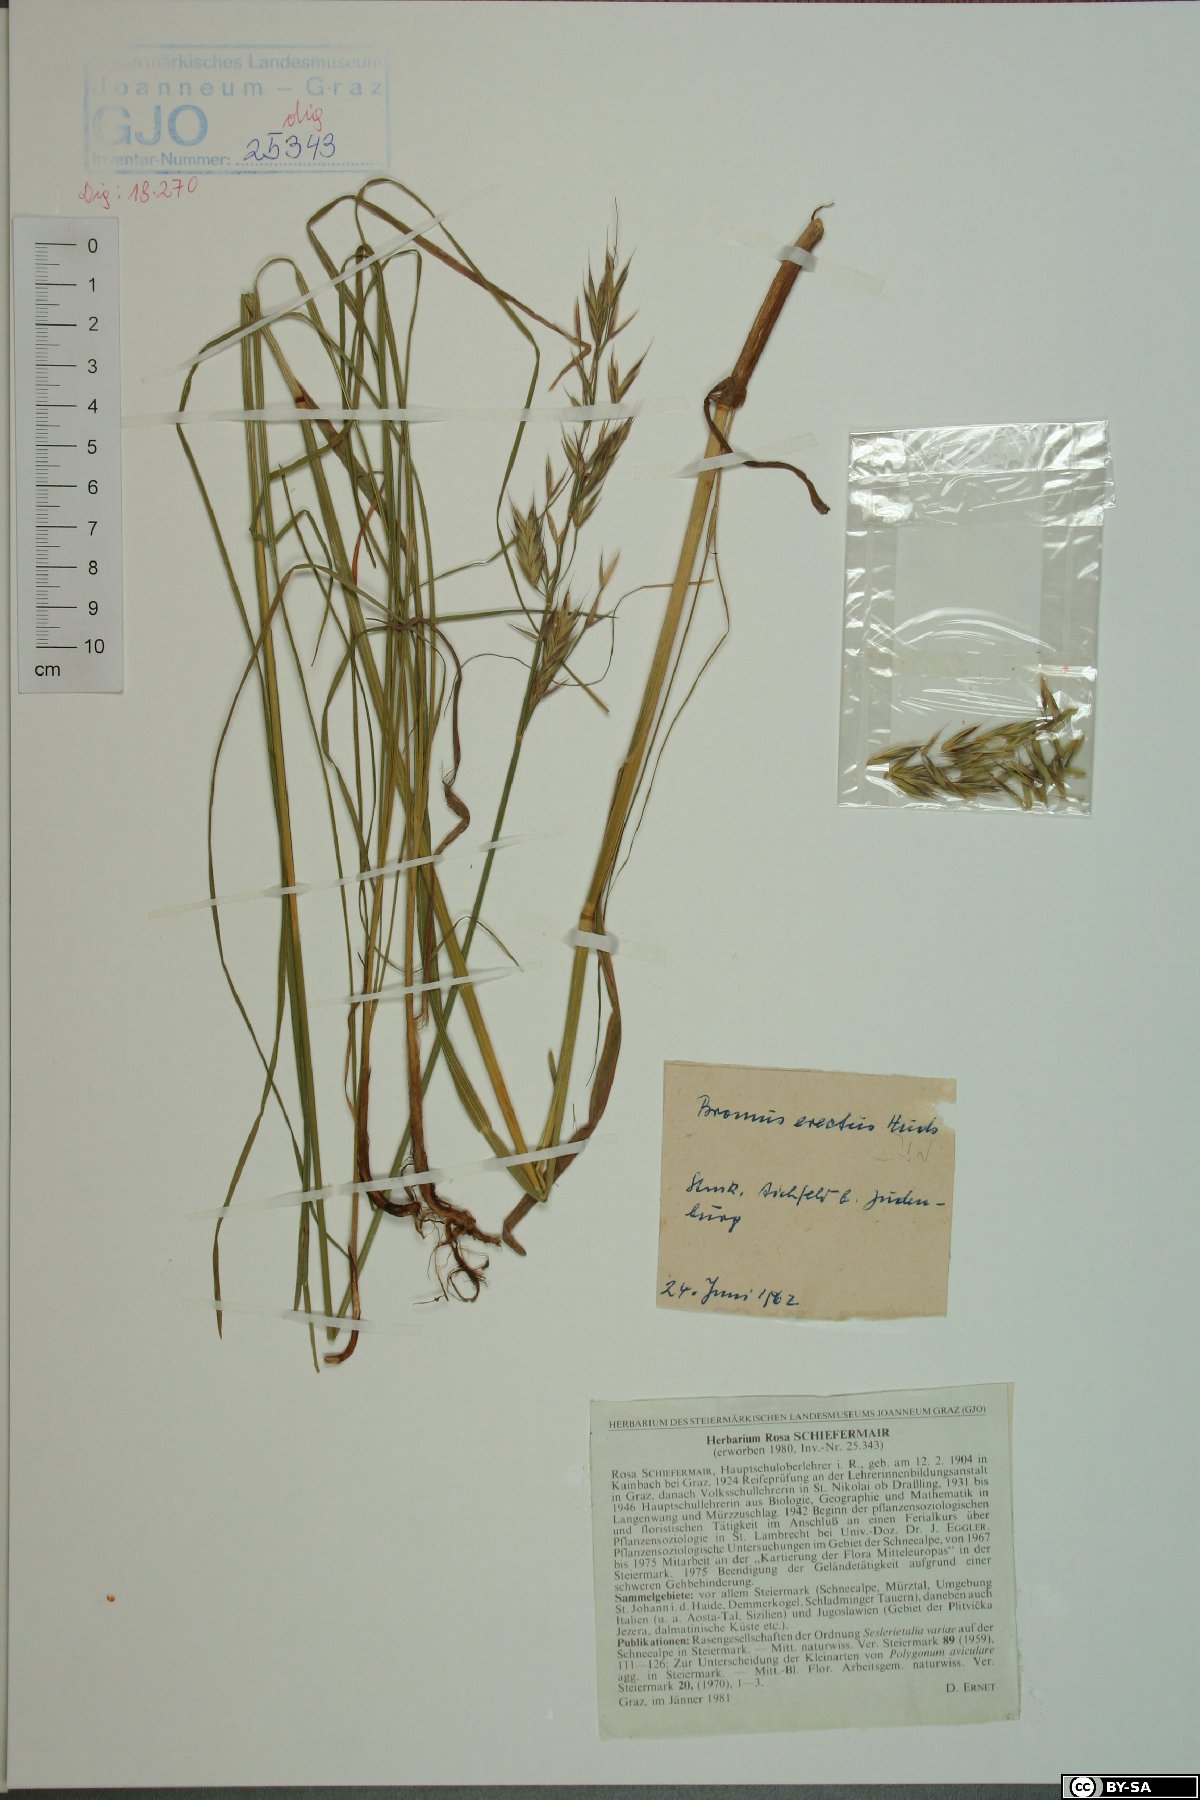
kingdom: Plantae
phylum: Tracheophyta
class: Liliopsida
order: Poales
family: Poaceae
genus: Bromus
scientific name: Bromus erectus
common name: Erect brome
